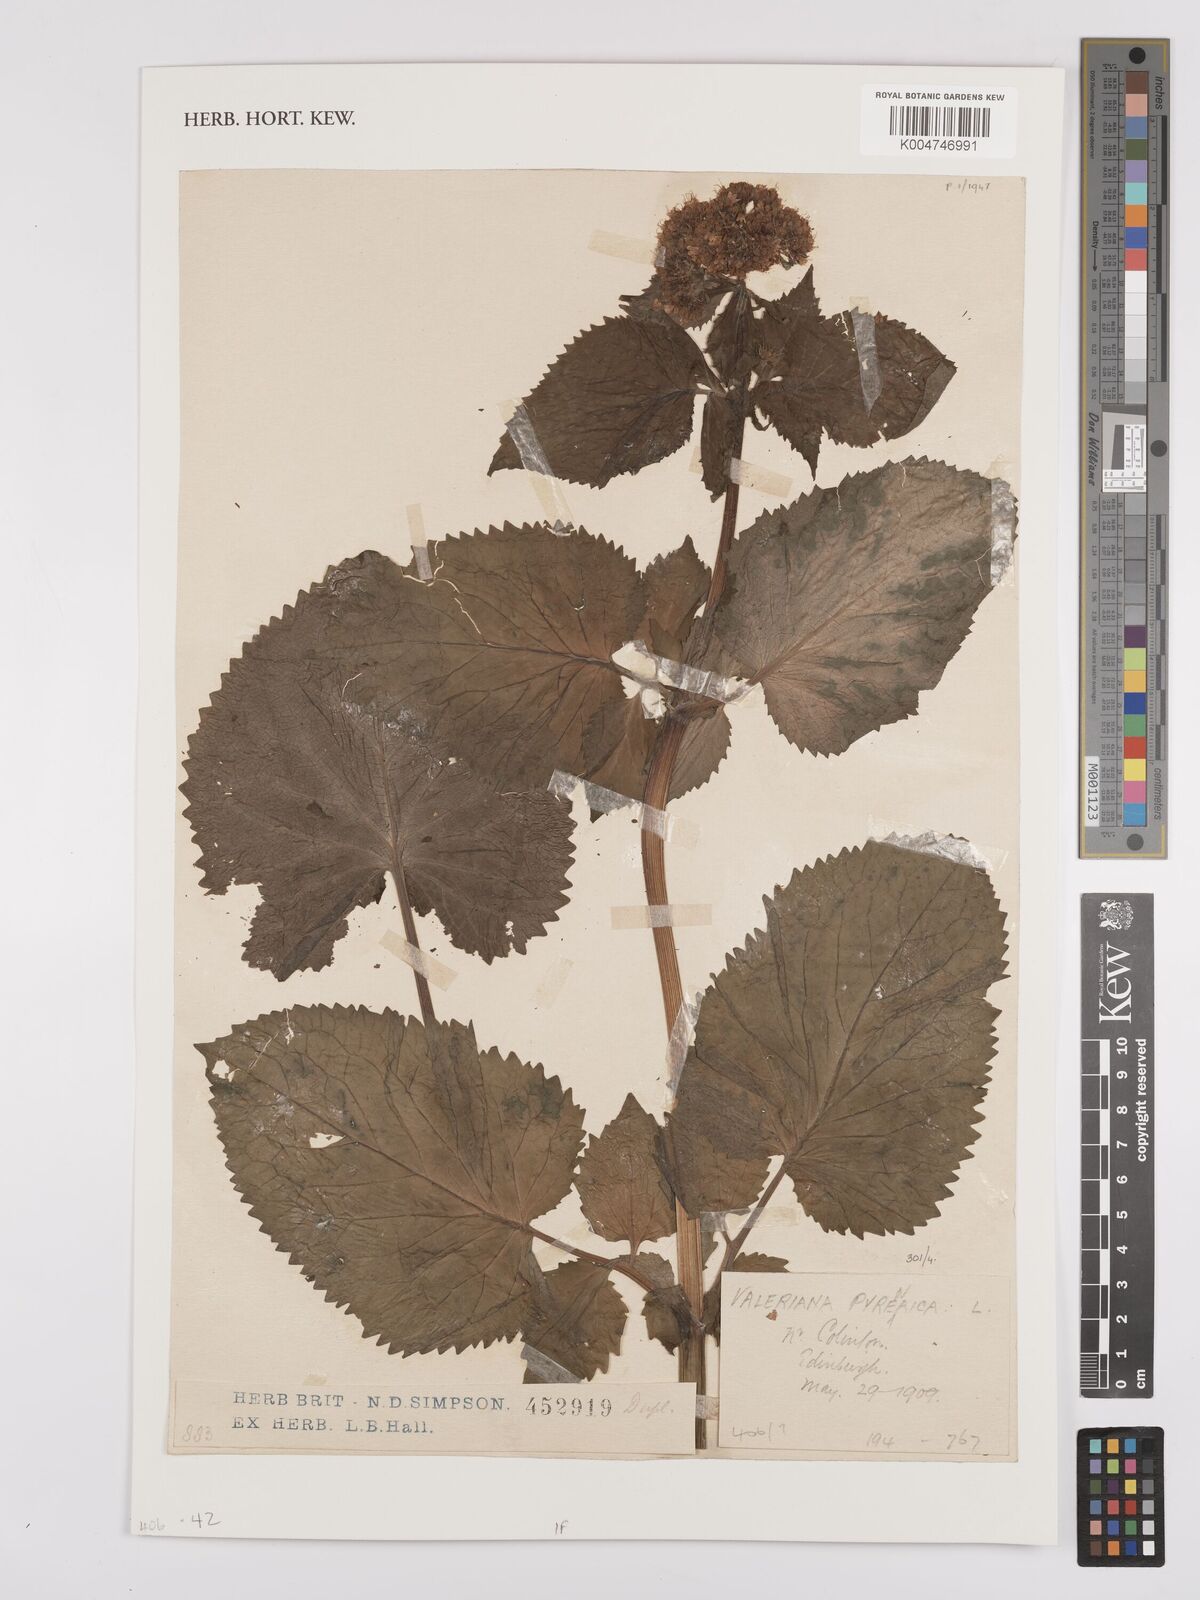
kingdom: Plantae
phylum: Tracheophyta
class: Magnoliopsida
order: Dipsacales
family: Caprifoliaceae
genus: Valeriana
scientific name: Valeriana pyrenaica
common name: Pyrenean valerian
